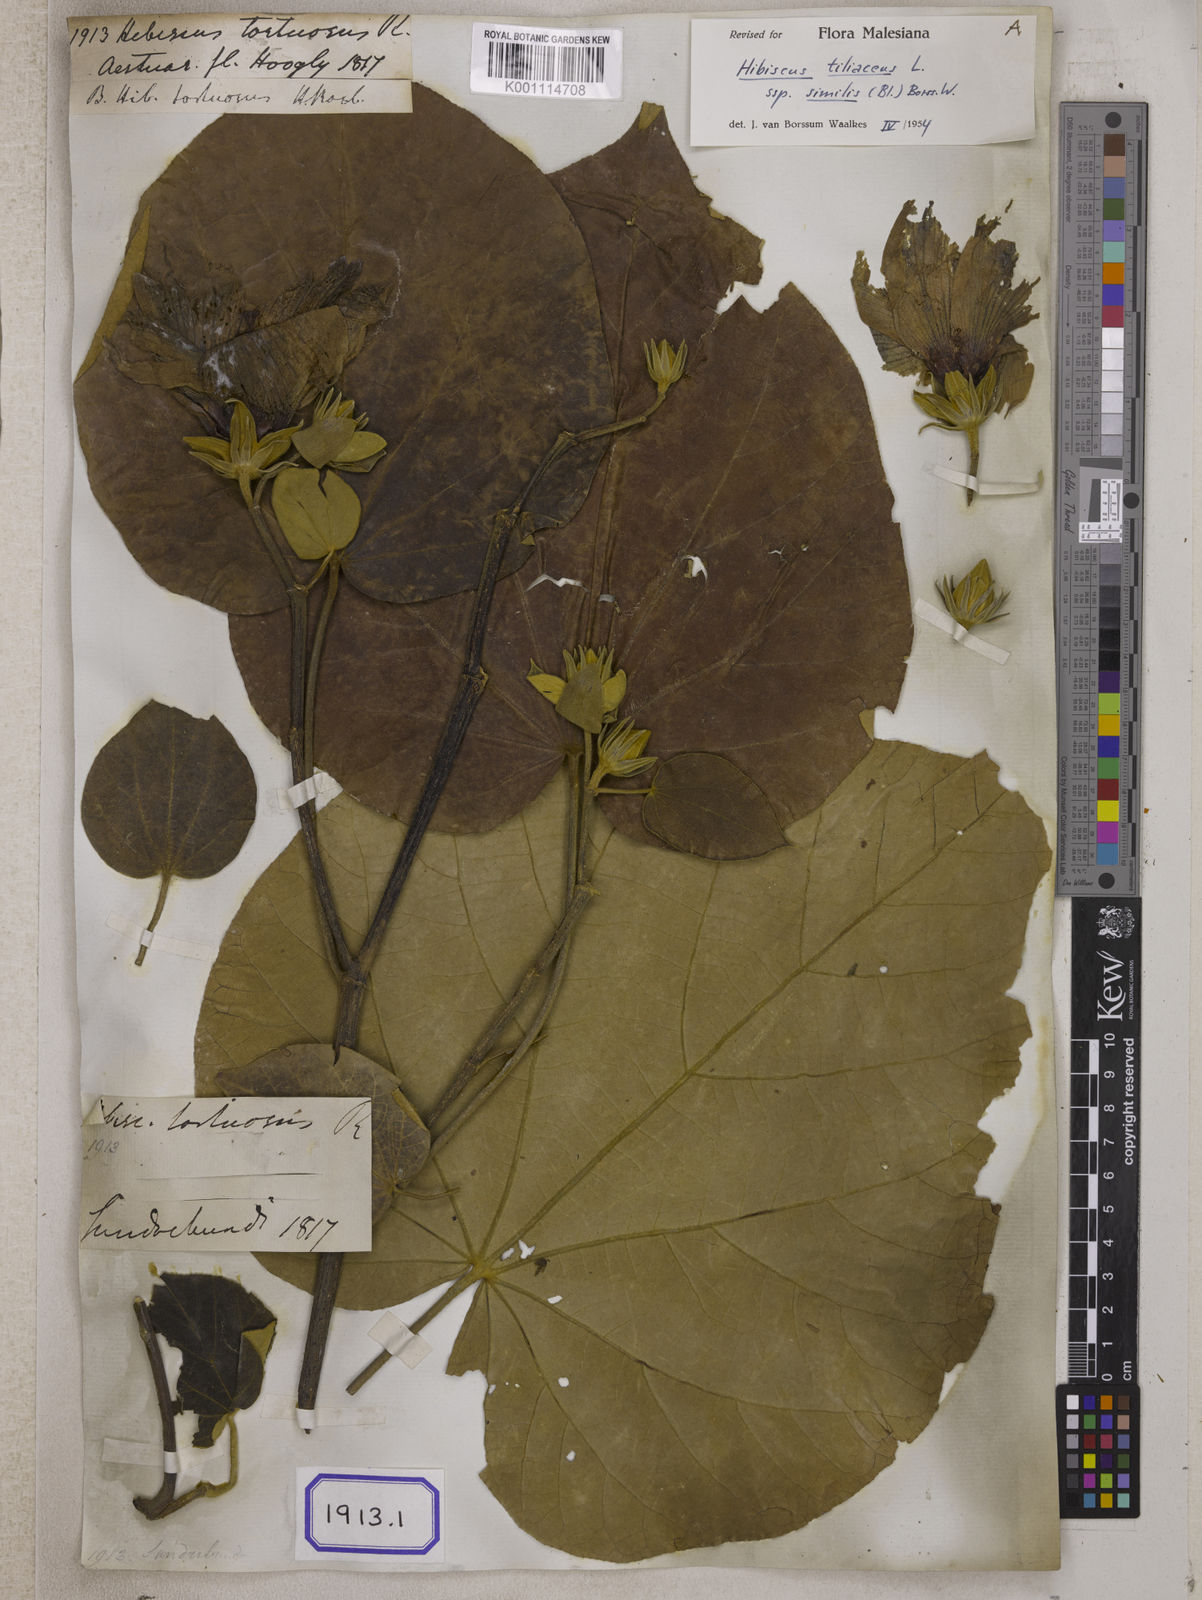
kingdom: Plantae
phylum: Tracheophyta
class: Magnoliopsida
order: Malvales
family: Malvaceae
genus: Talipariti
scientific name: Talipariti tortuosum
